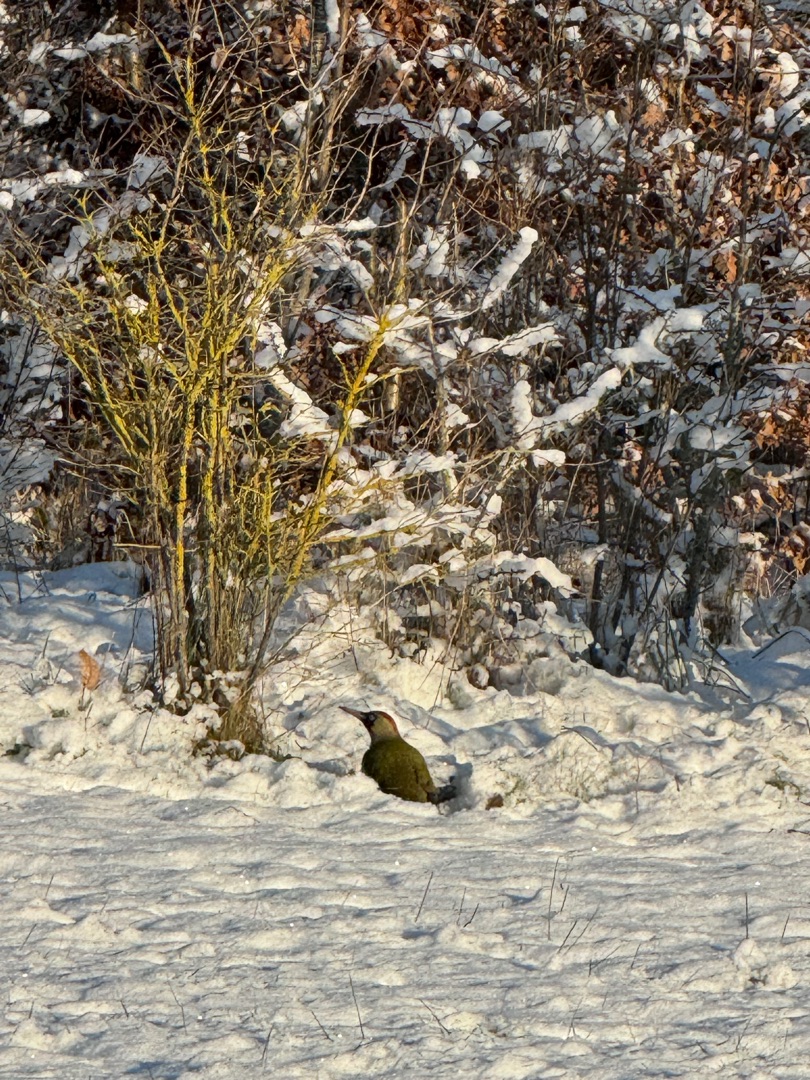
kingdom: Animalia
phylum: Chordata
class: Aves
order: Piciformes
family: Picidae
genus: Picus
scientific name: Picus viridis
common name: Grønspætte
